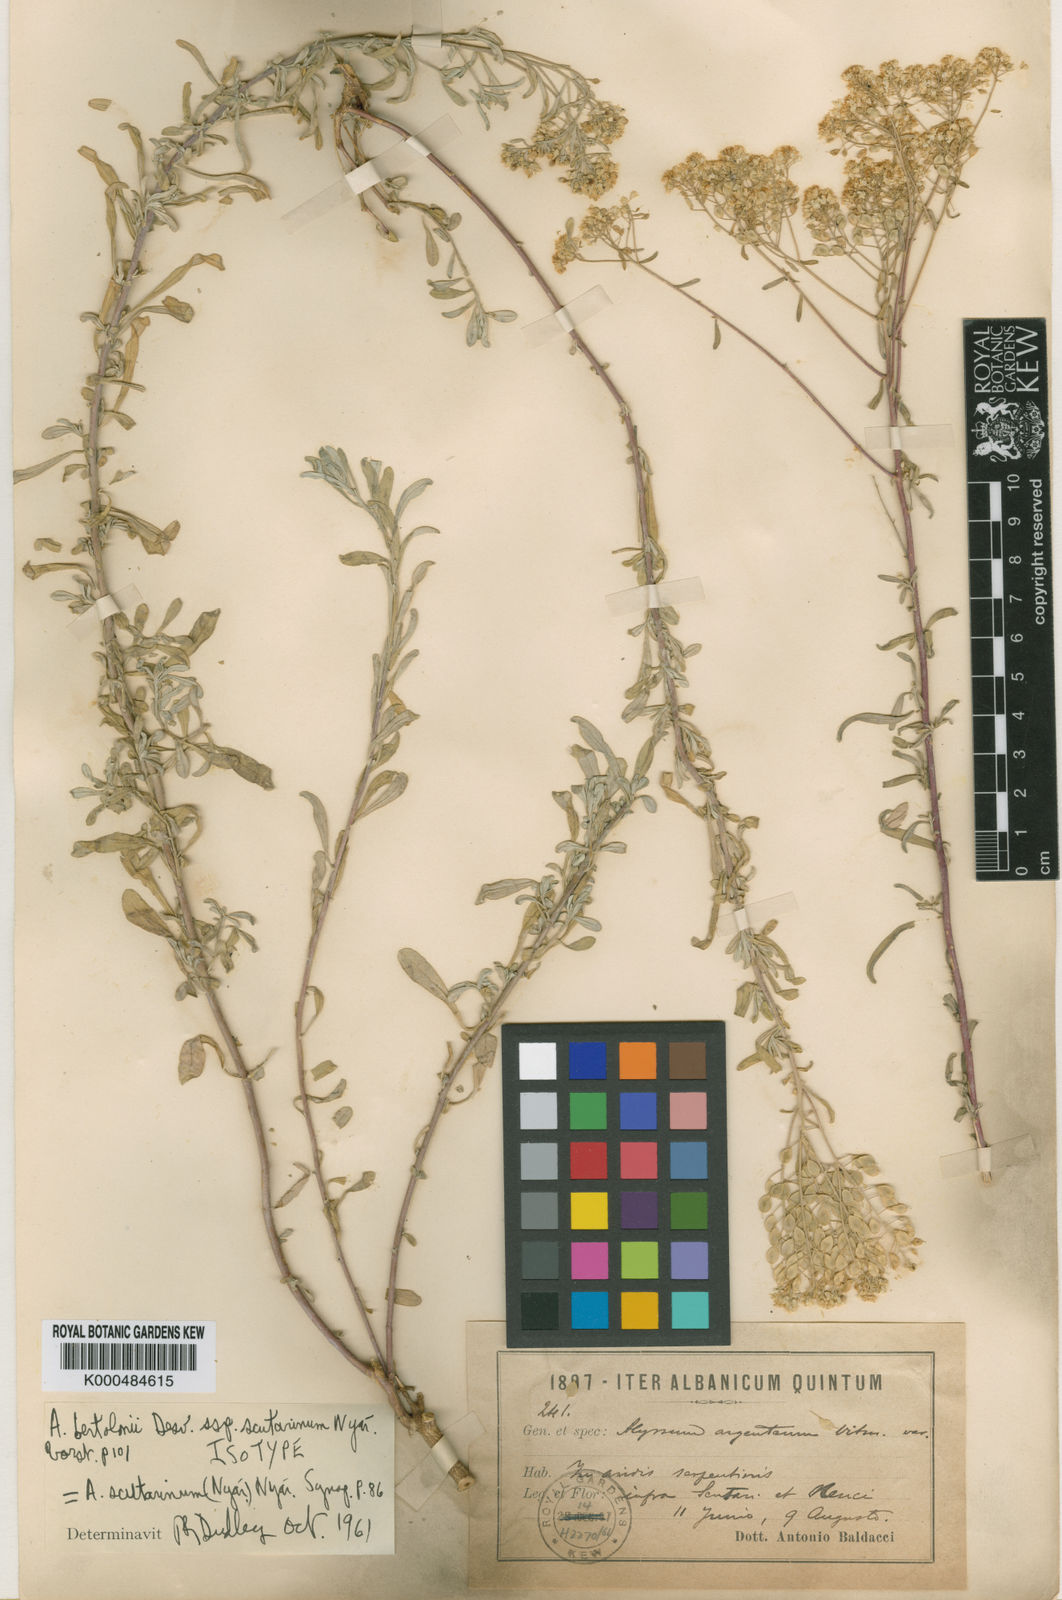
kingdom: Plantae
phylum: Tracheophyta
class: Magnoliopsida
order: Brassicales
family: Brassicaceae
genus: Odontarrhena
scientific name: Odontarrhena chalcidica
